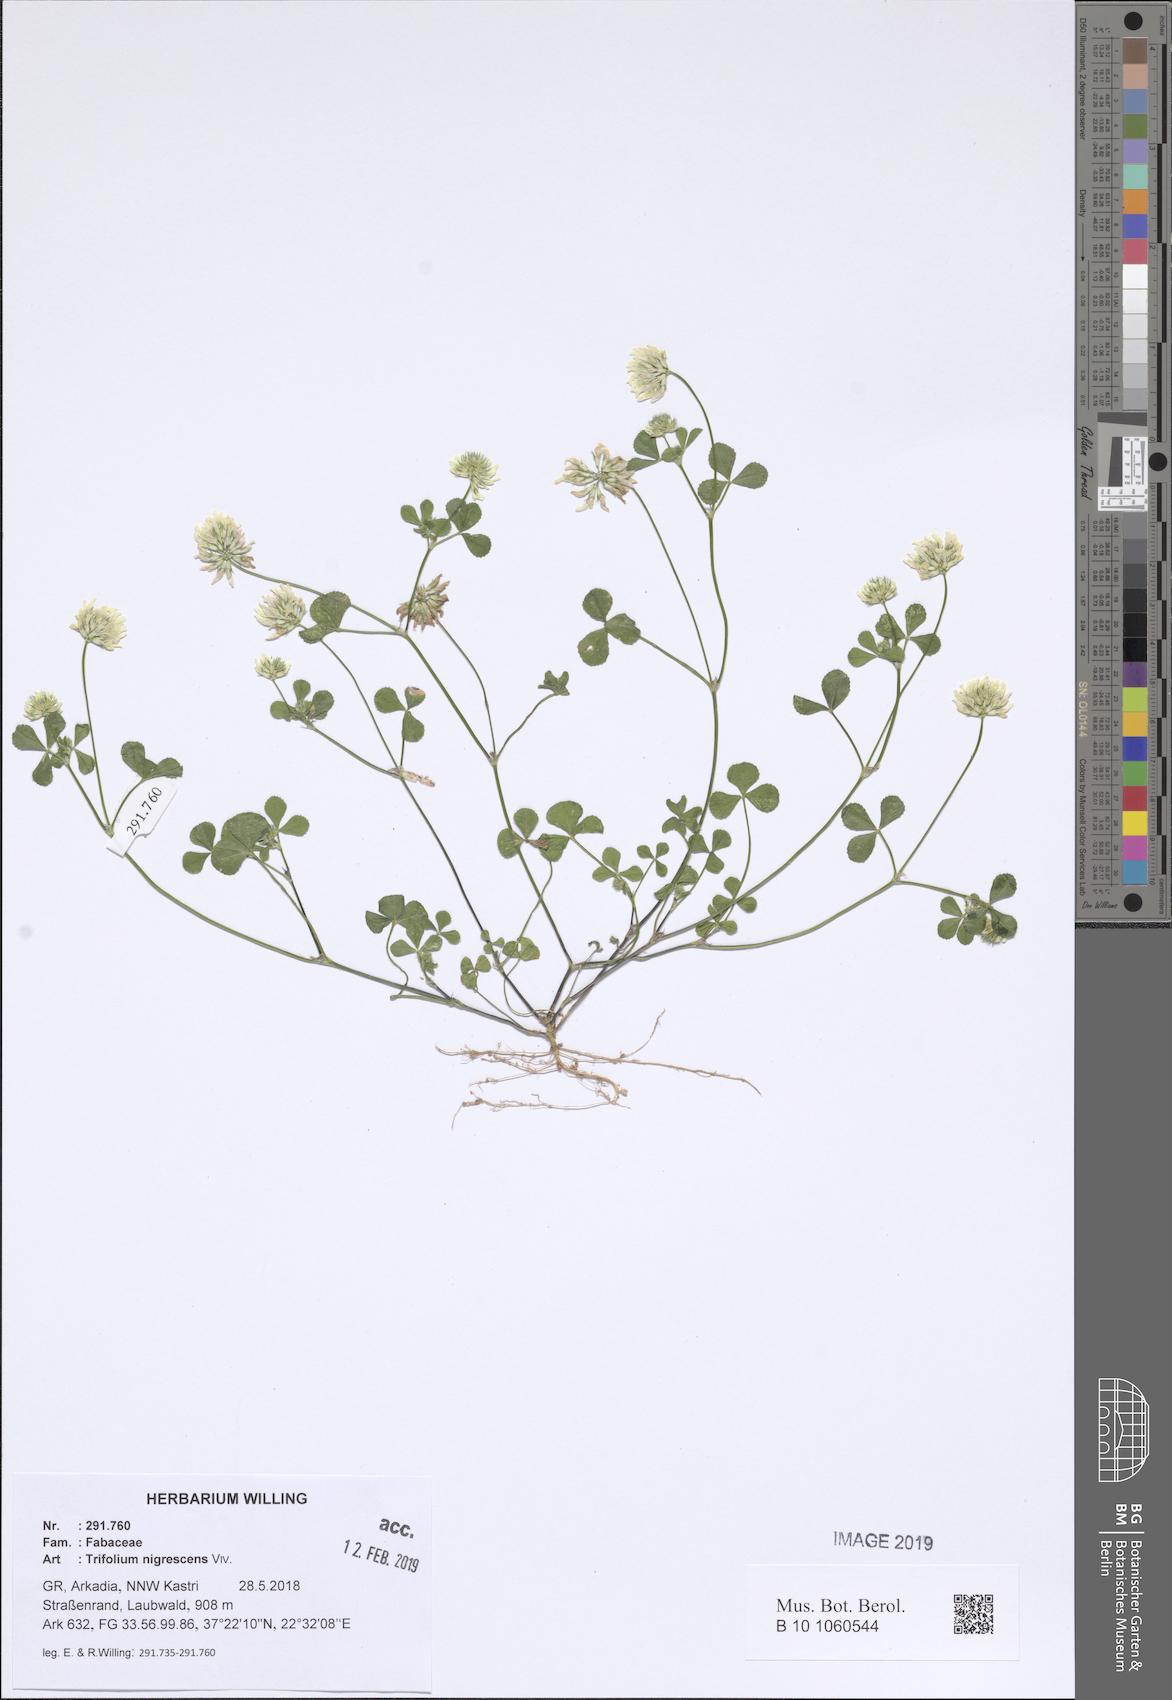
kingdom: Plantae
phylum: Tracheophyta
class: Magnoliopsida
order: Fabales
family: Fabaceae
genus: Trifolium
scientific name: Trifolium nigrescens
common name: Small white clover
